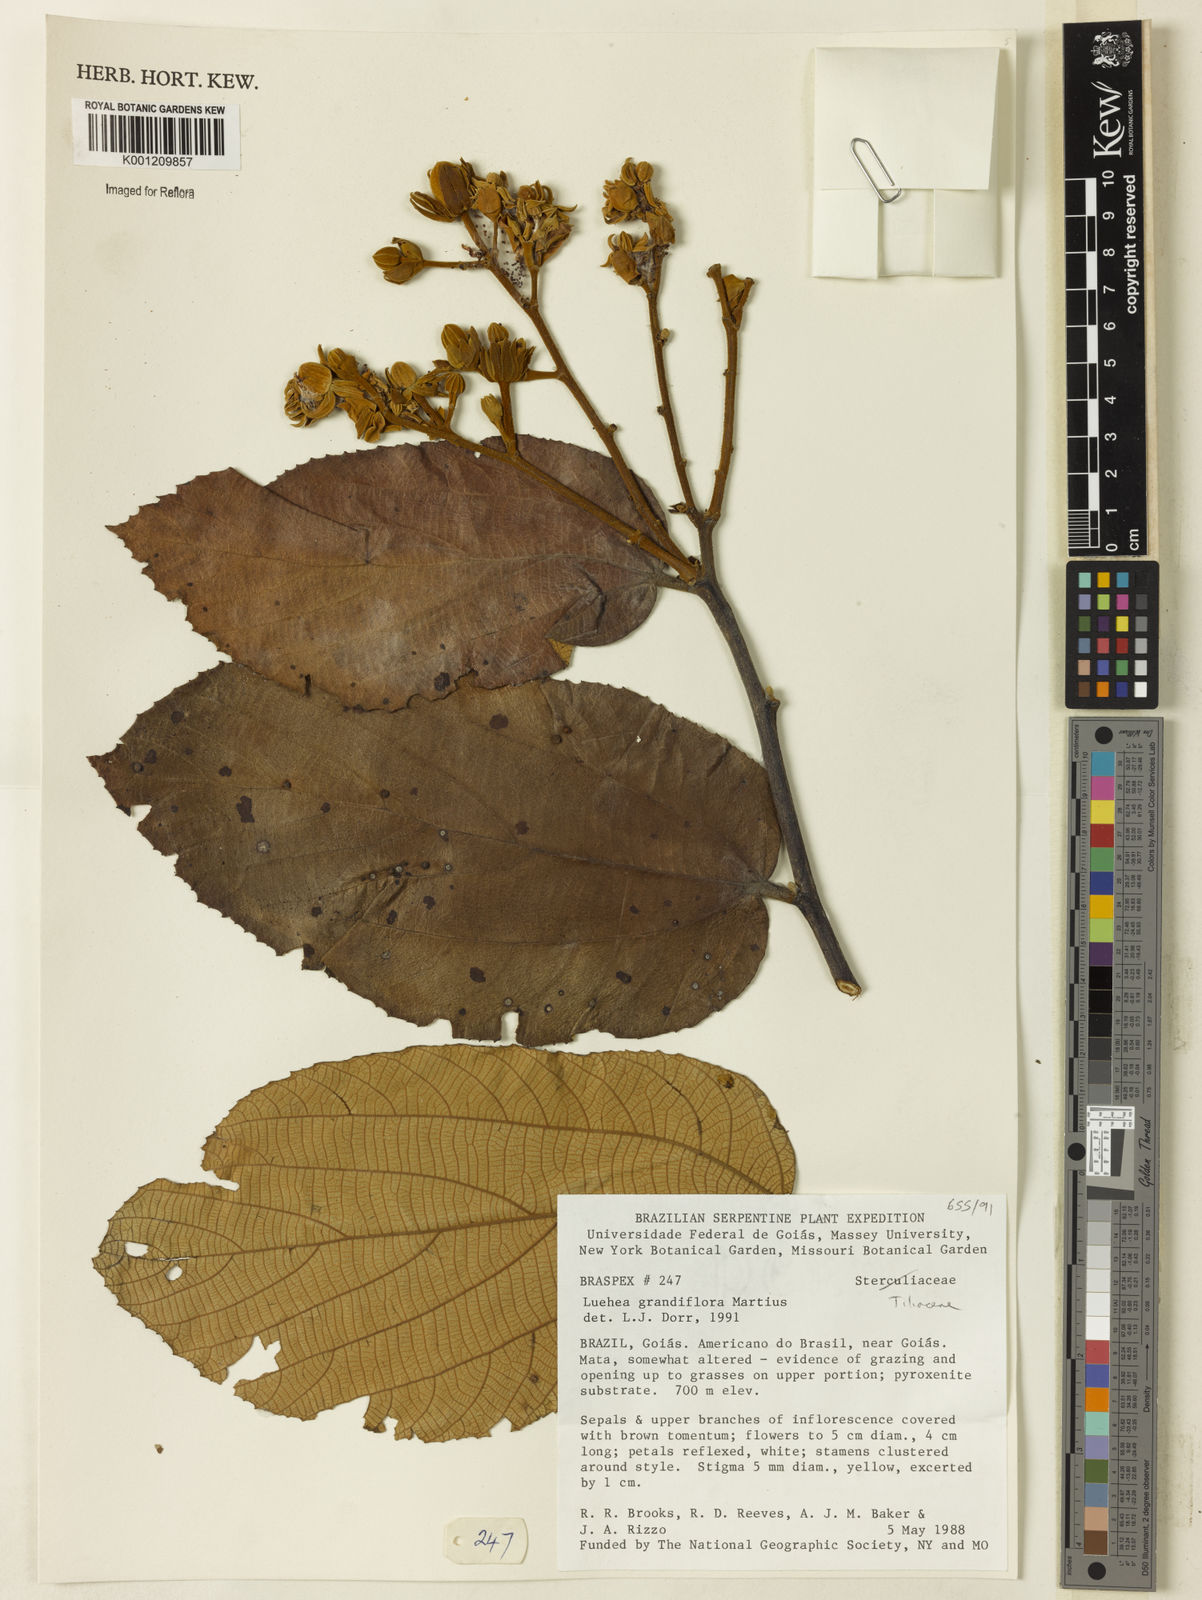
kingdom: Plantae
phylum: Tracheophyta
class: Magnoliopsida
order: Malvales
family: Malvaceae
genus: Luehea
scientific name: Luehea grandiflora
